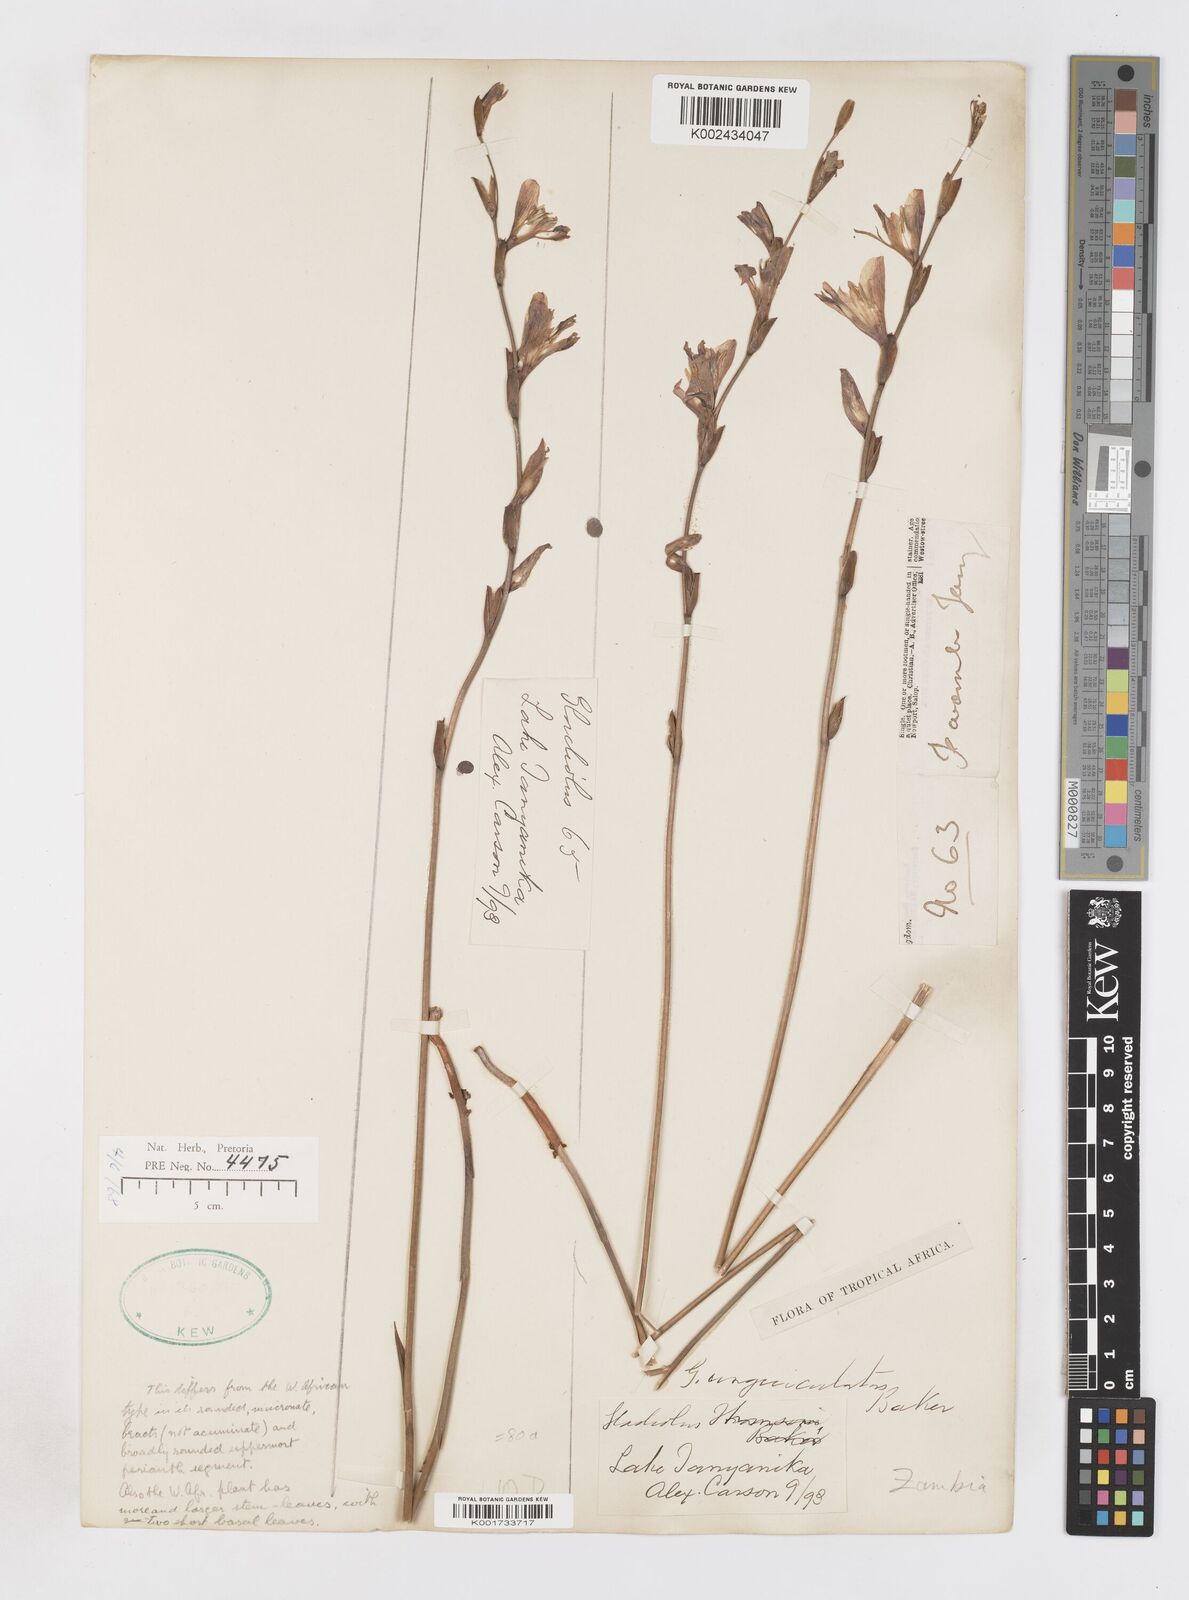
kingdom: Plantae
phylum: Tracheophyta
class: Liliopsida
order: Asparagales
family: Iridaceae
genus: Gladiolus
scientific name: Gladiolus atropurpureus
